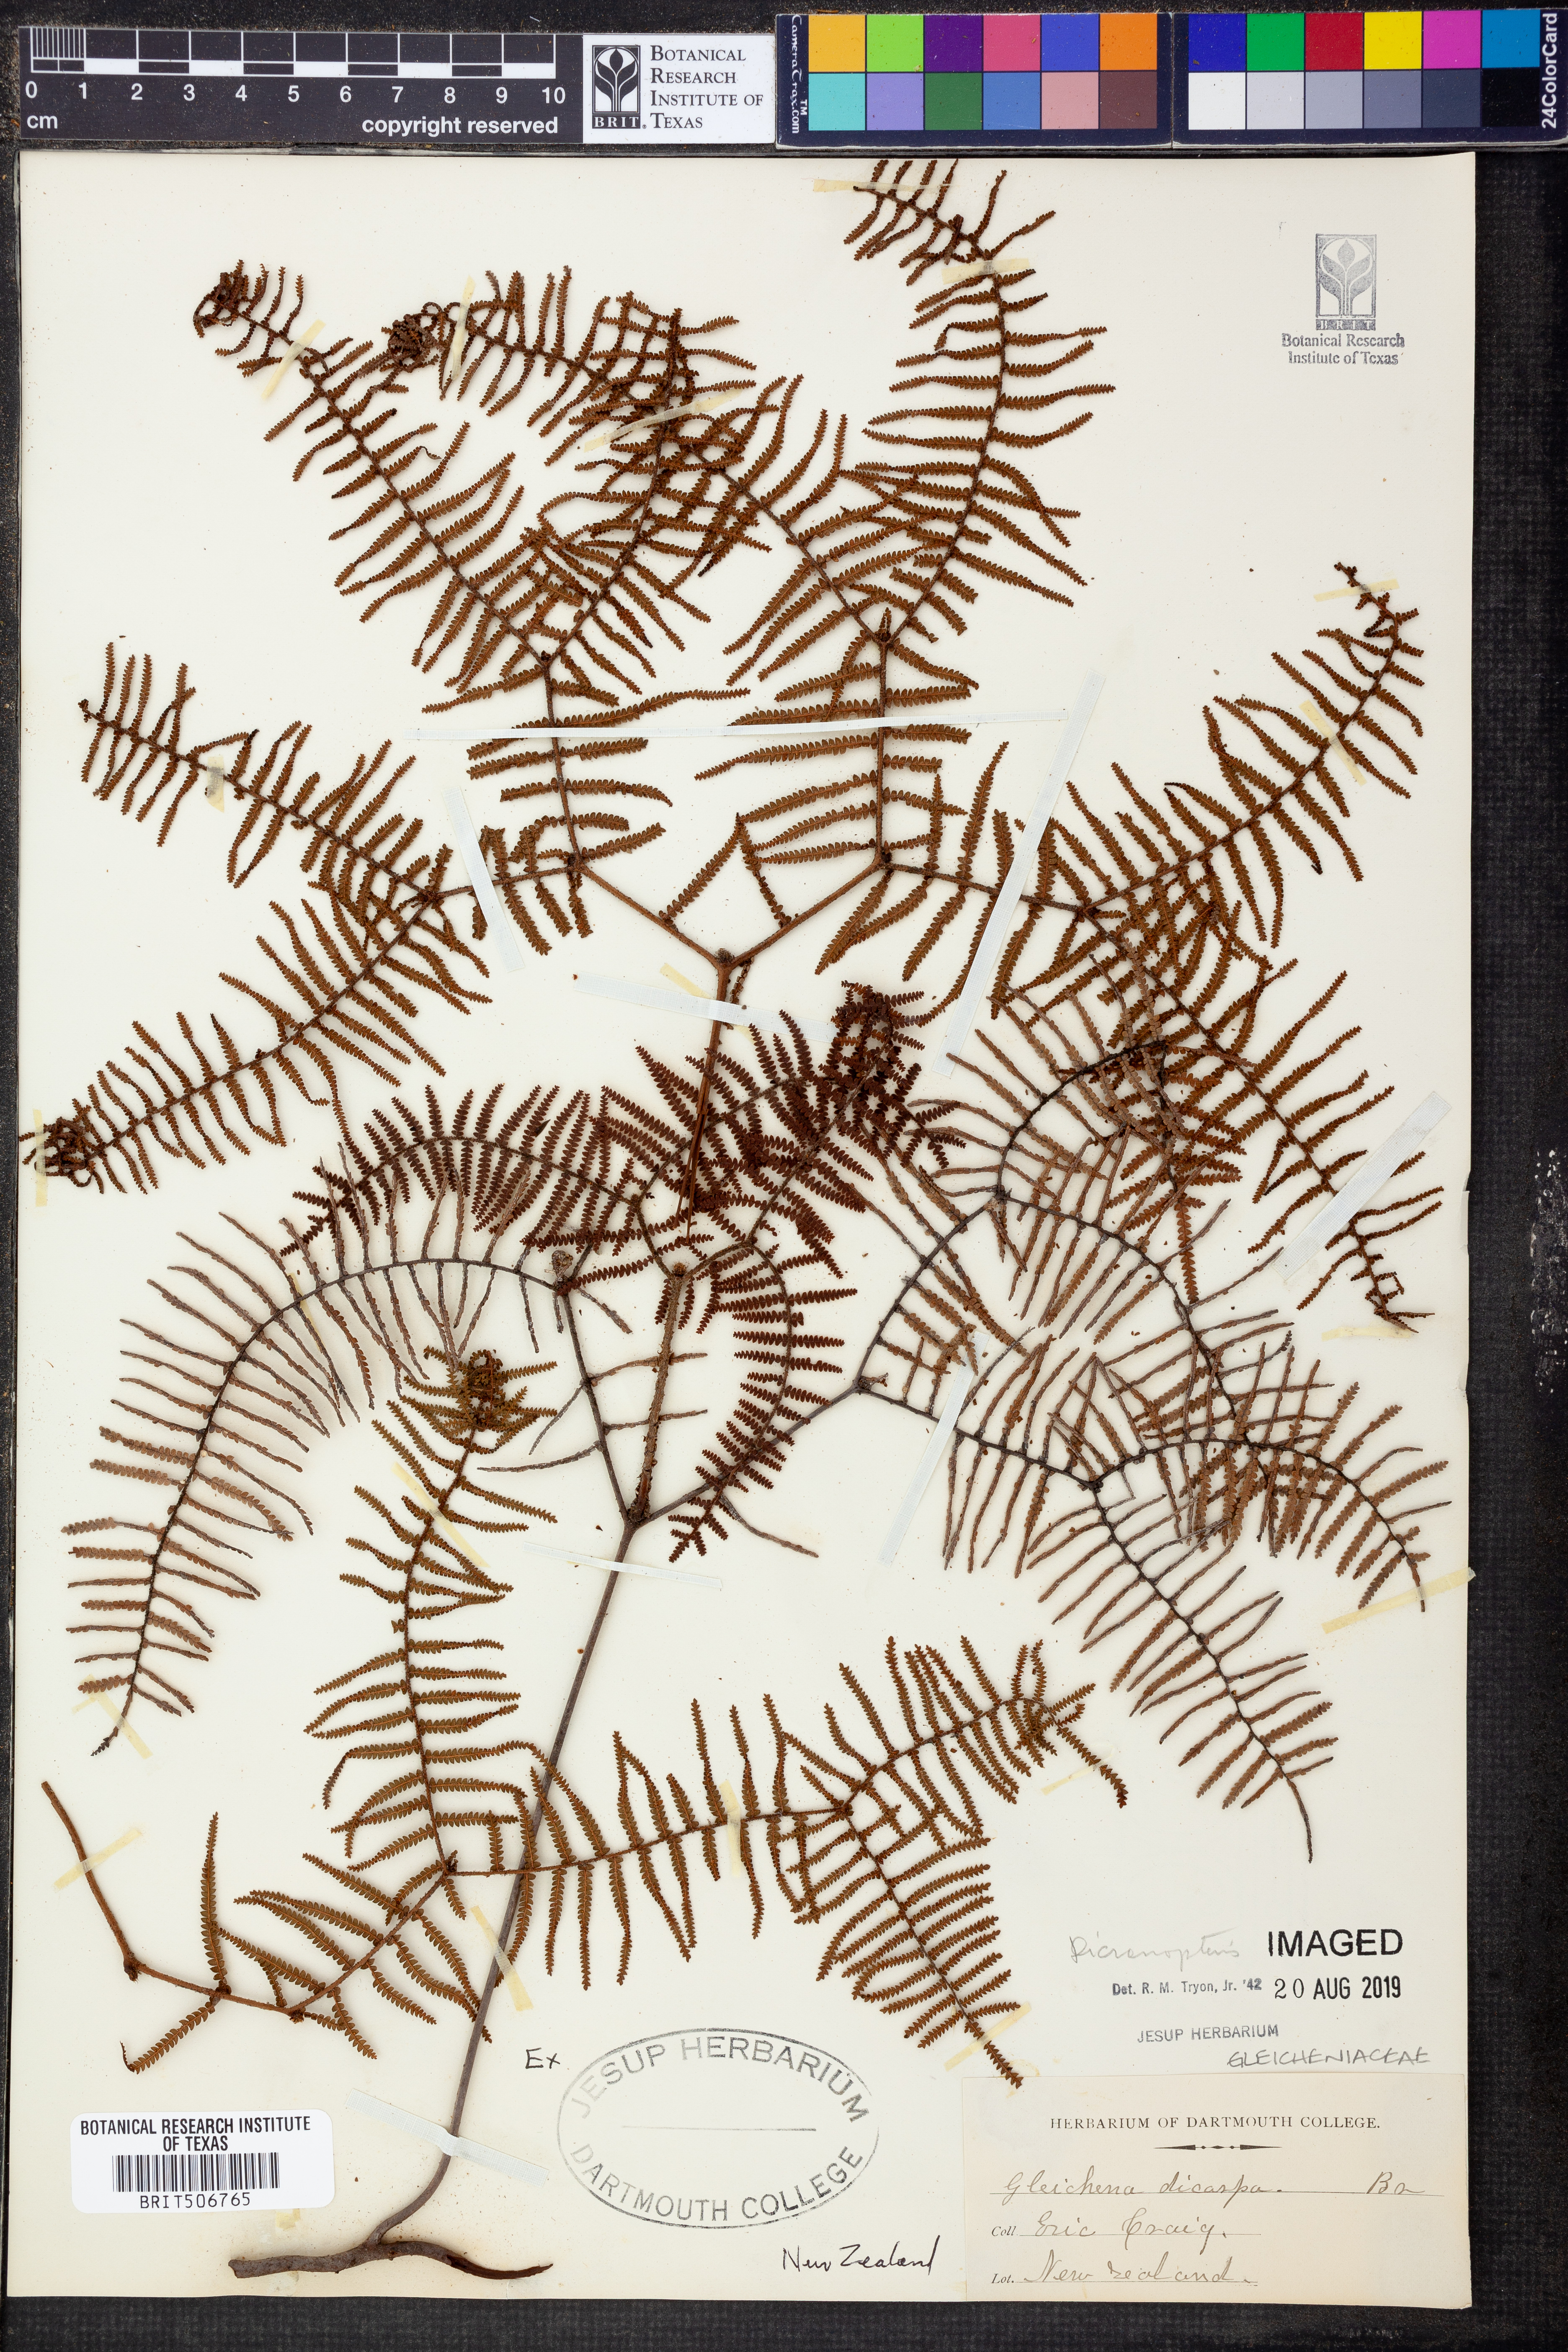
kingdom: Plantae
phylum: Tracheophyta
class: Polypodiopsida
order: Gleicheniales
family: Gleicheniaceae
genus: Dicranopteris
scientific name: Dicranopteris
